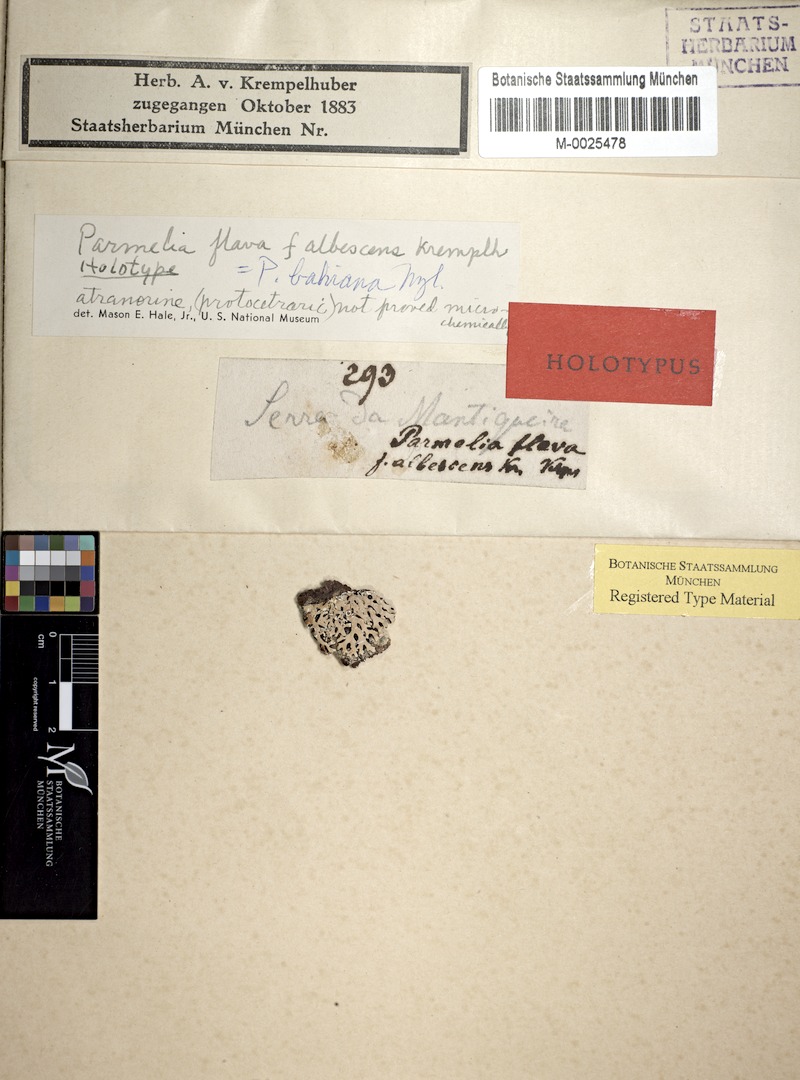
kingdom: Fungi
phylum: Ascomycota
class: Lecanoromycetes
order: Lecanorales
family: Parmeliaceae
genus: Hypotrachyna
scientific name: Hypotrachyna heterochroa
